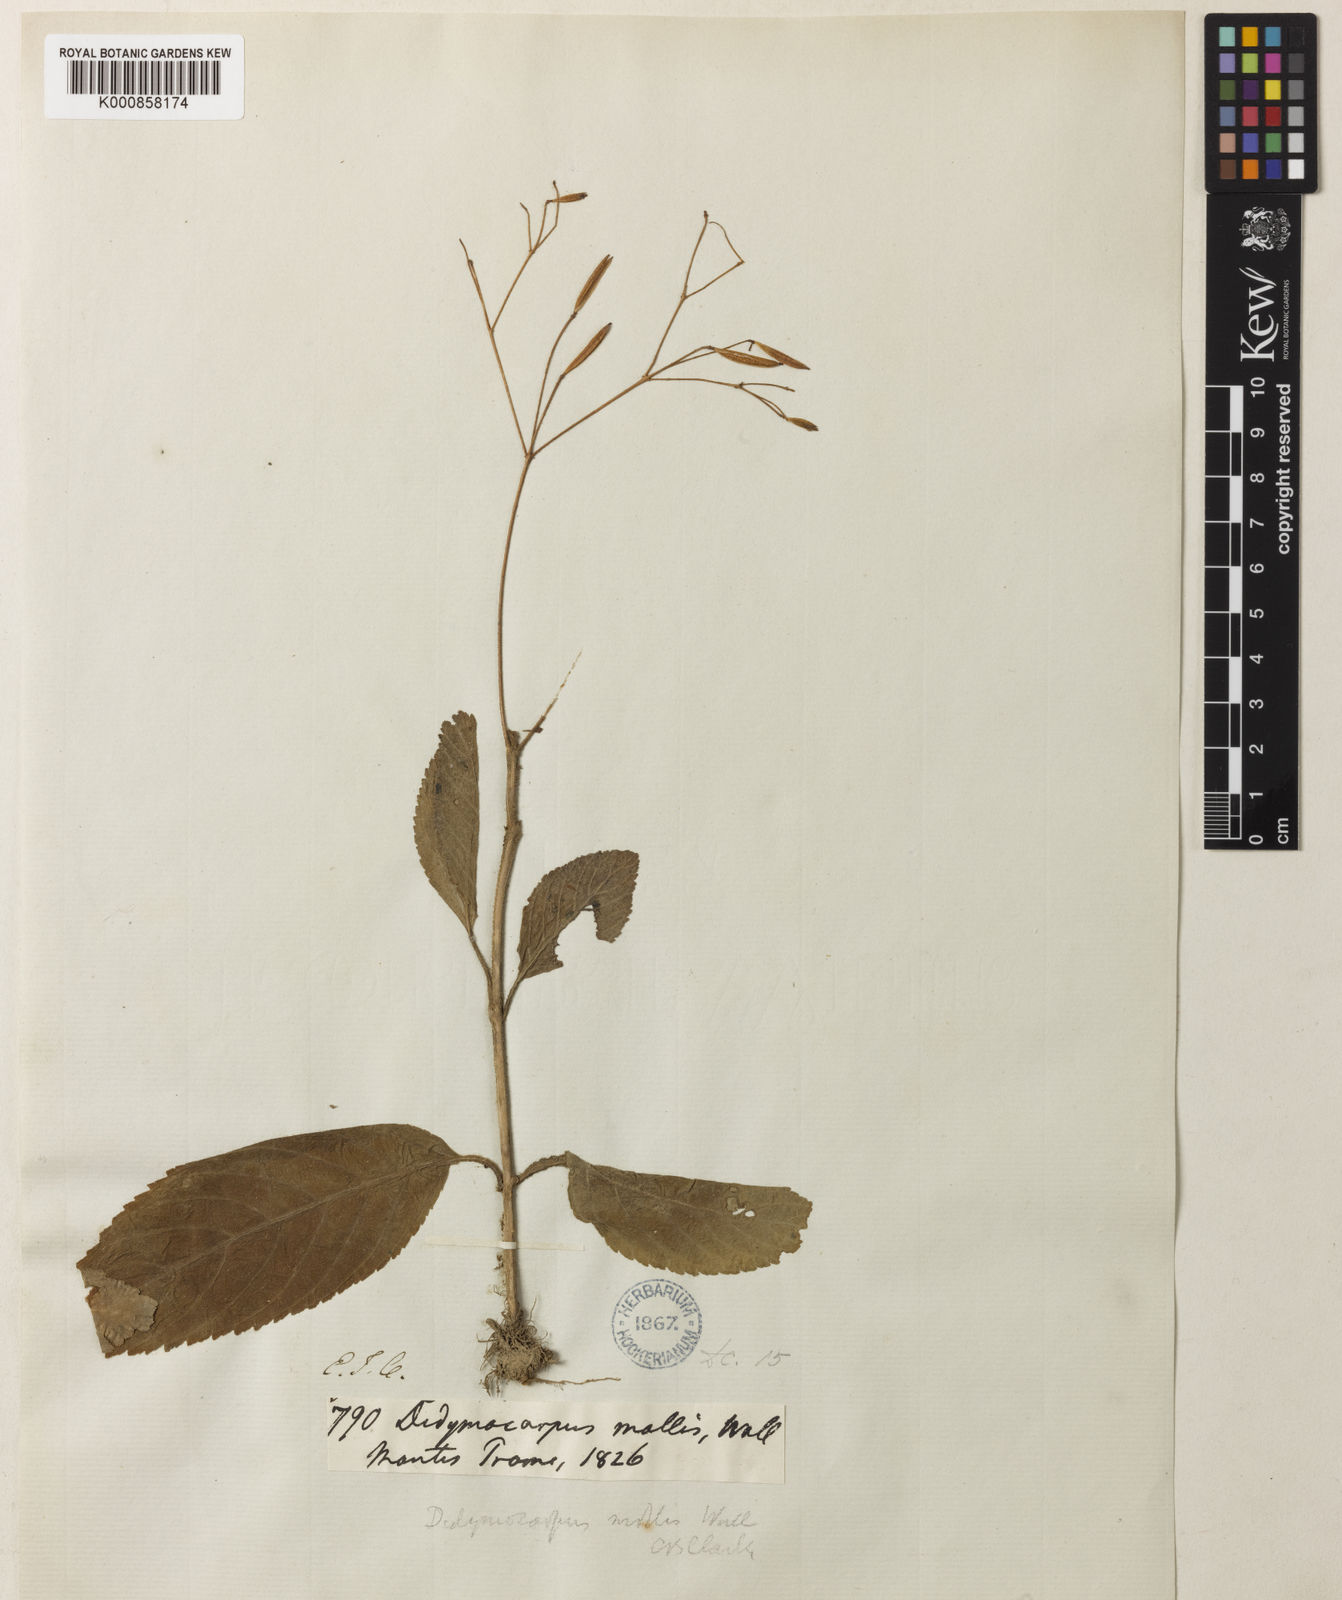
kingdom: Plantae
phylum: Tracheophyta
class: Magnoliopsida
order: Lamiales
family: Gesneriaceae
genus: Henckelia
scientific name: Henckelia
